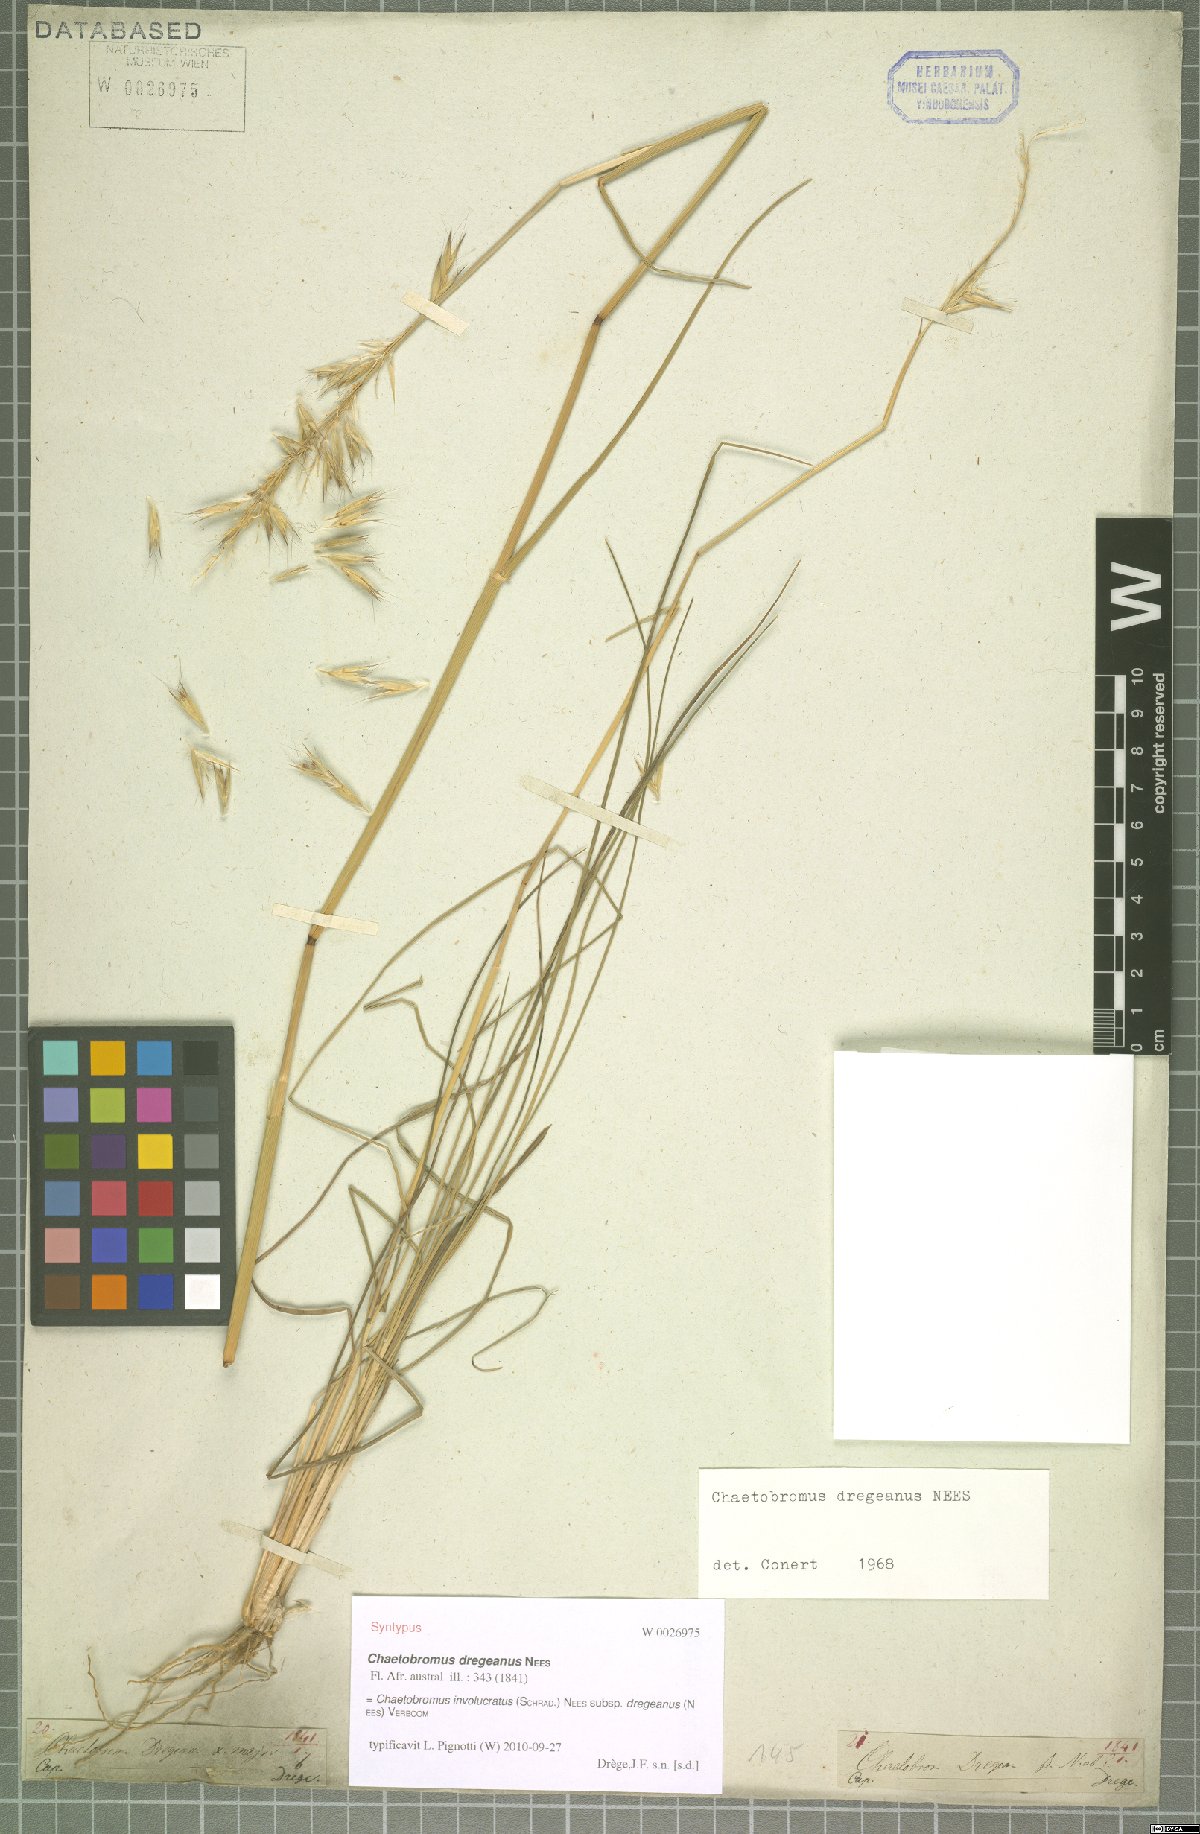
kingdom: Plantae
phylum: Tracheophyta
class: Liliopsida
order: Poales
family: Poaceae
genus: Chaetobromus
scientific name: Chaetobromus involucratus
